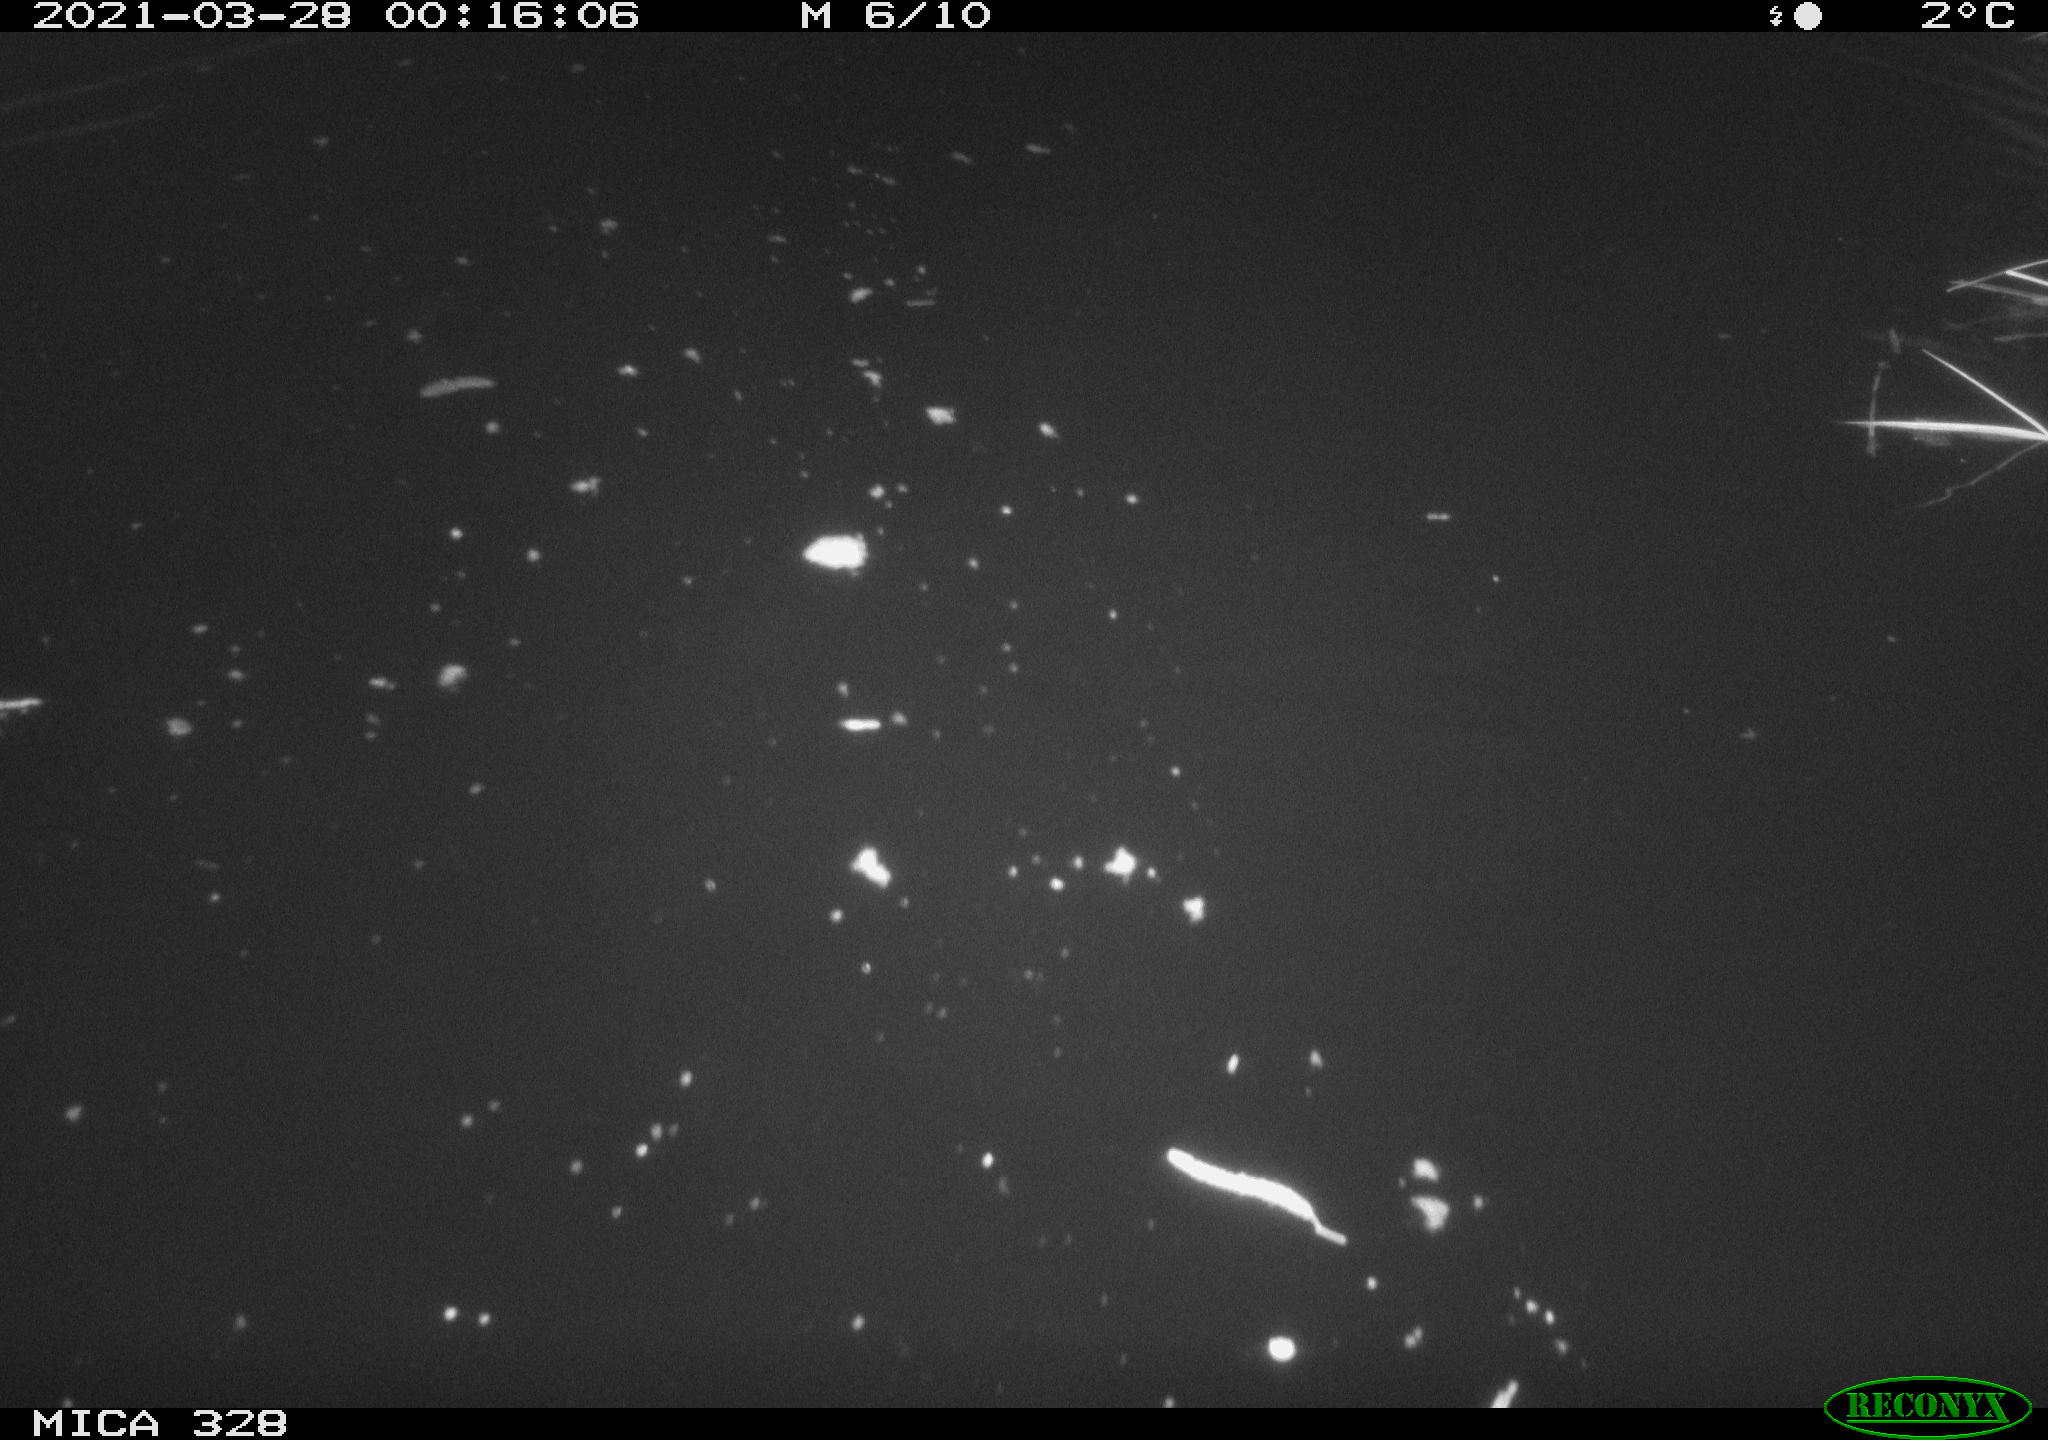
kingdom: Animalia
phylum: Chordata
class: Aves
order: Anseriformes
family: Anatidae
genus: Anas
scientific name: Anas platyrhynchos
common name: Mallard
